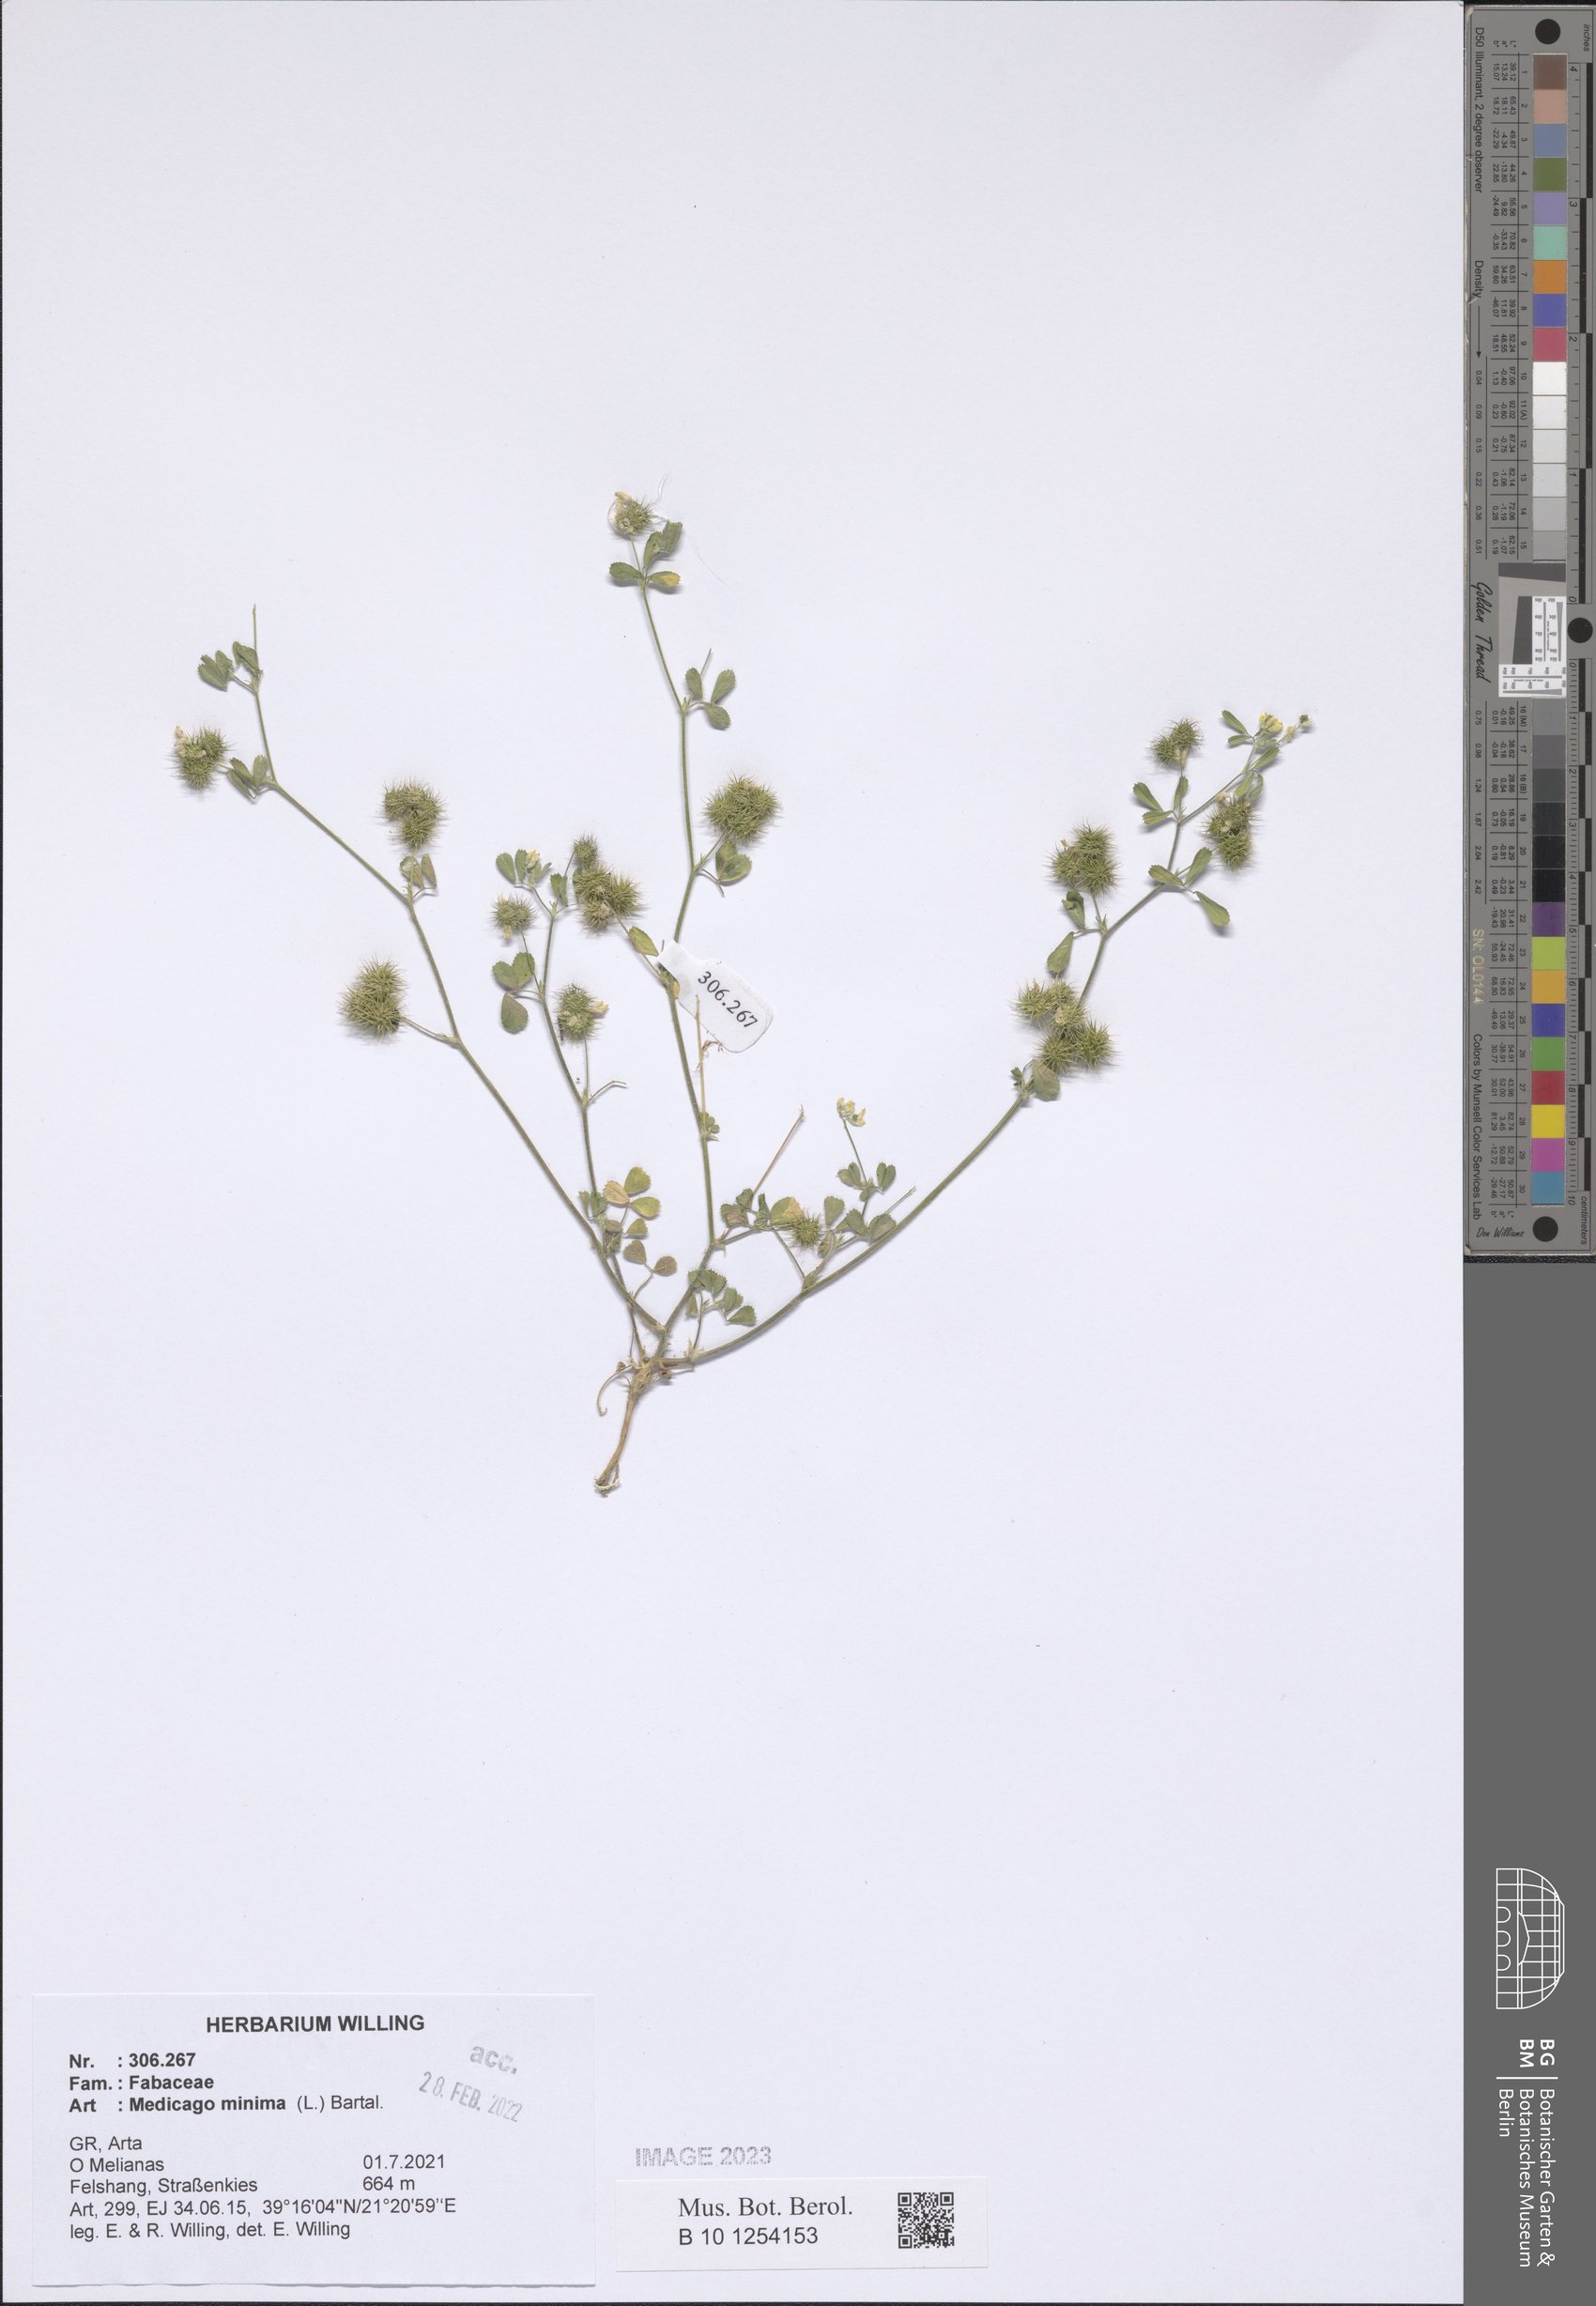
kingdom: Plantae
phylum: Tracheophyta
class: Magnoliopsida
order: Fabales
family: Fabaceae
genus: Medicago
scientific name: Medicago minima
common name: Little bur-clover
